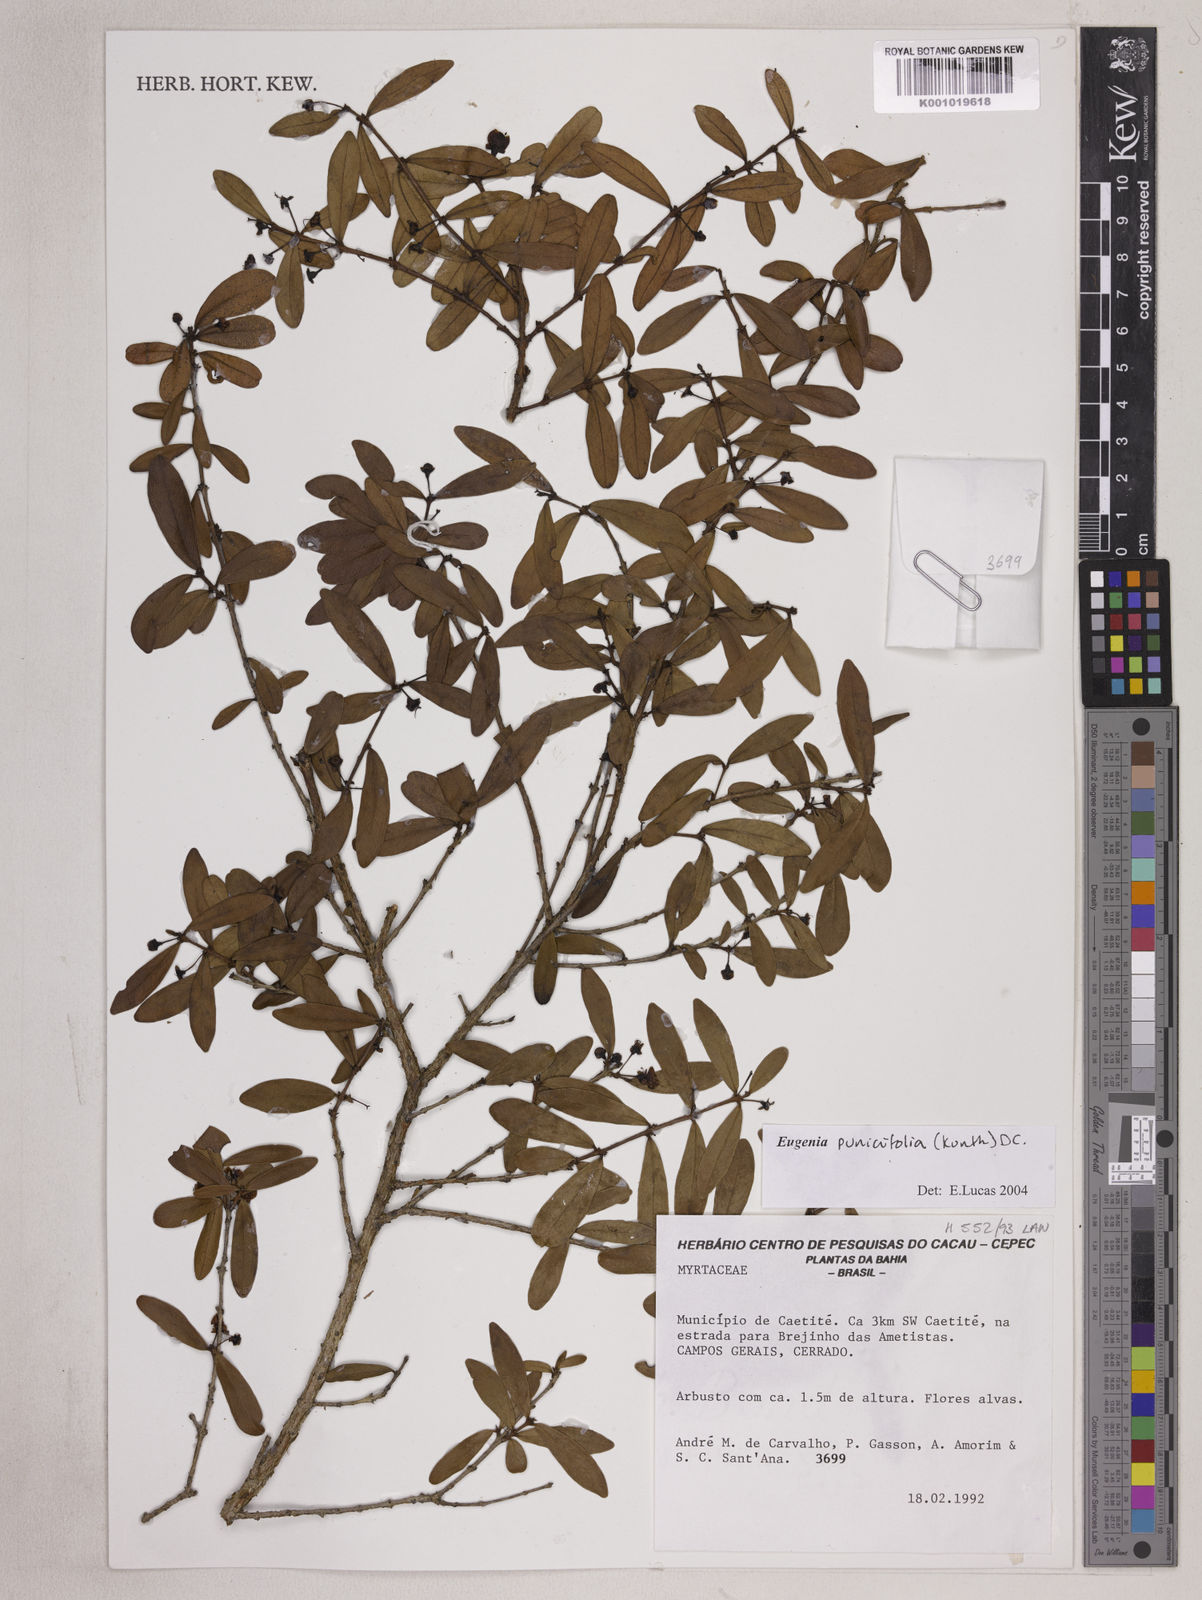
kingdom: Plantae
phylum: Tracheophyta
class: Magnoliopsida
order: Myrtales
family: Myrtaceae
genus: Eugenia
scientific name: Eugenia punicifolia
